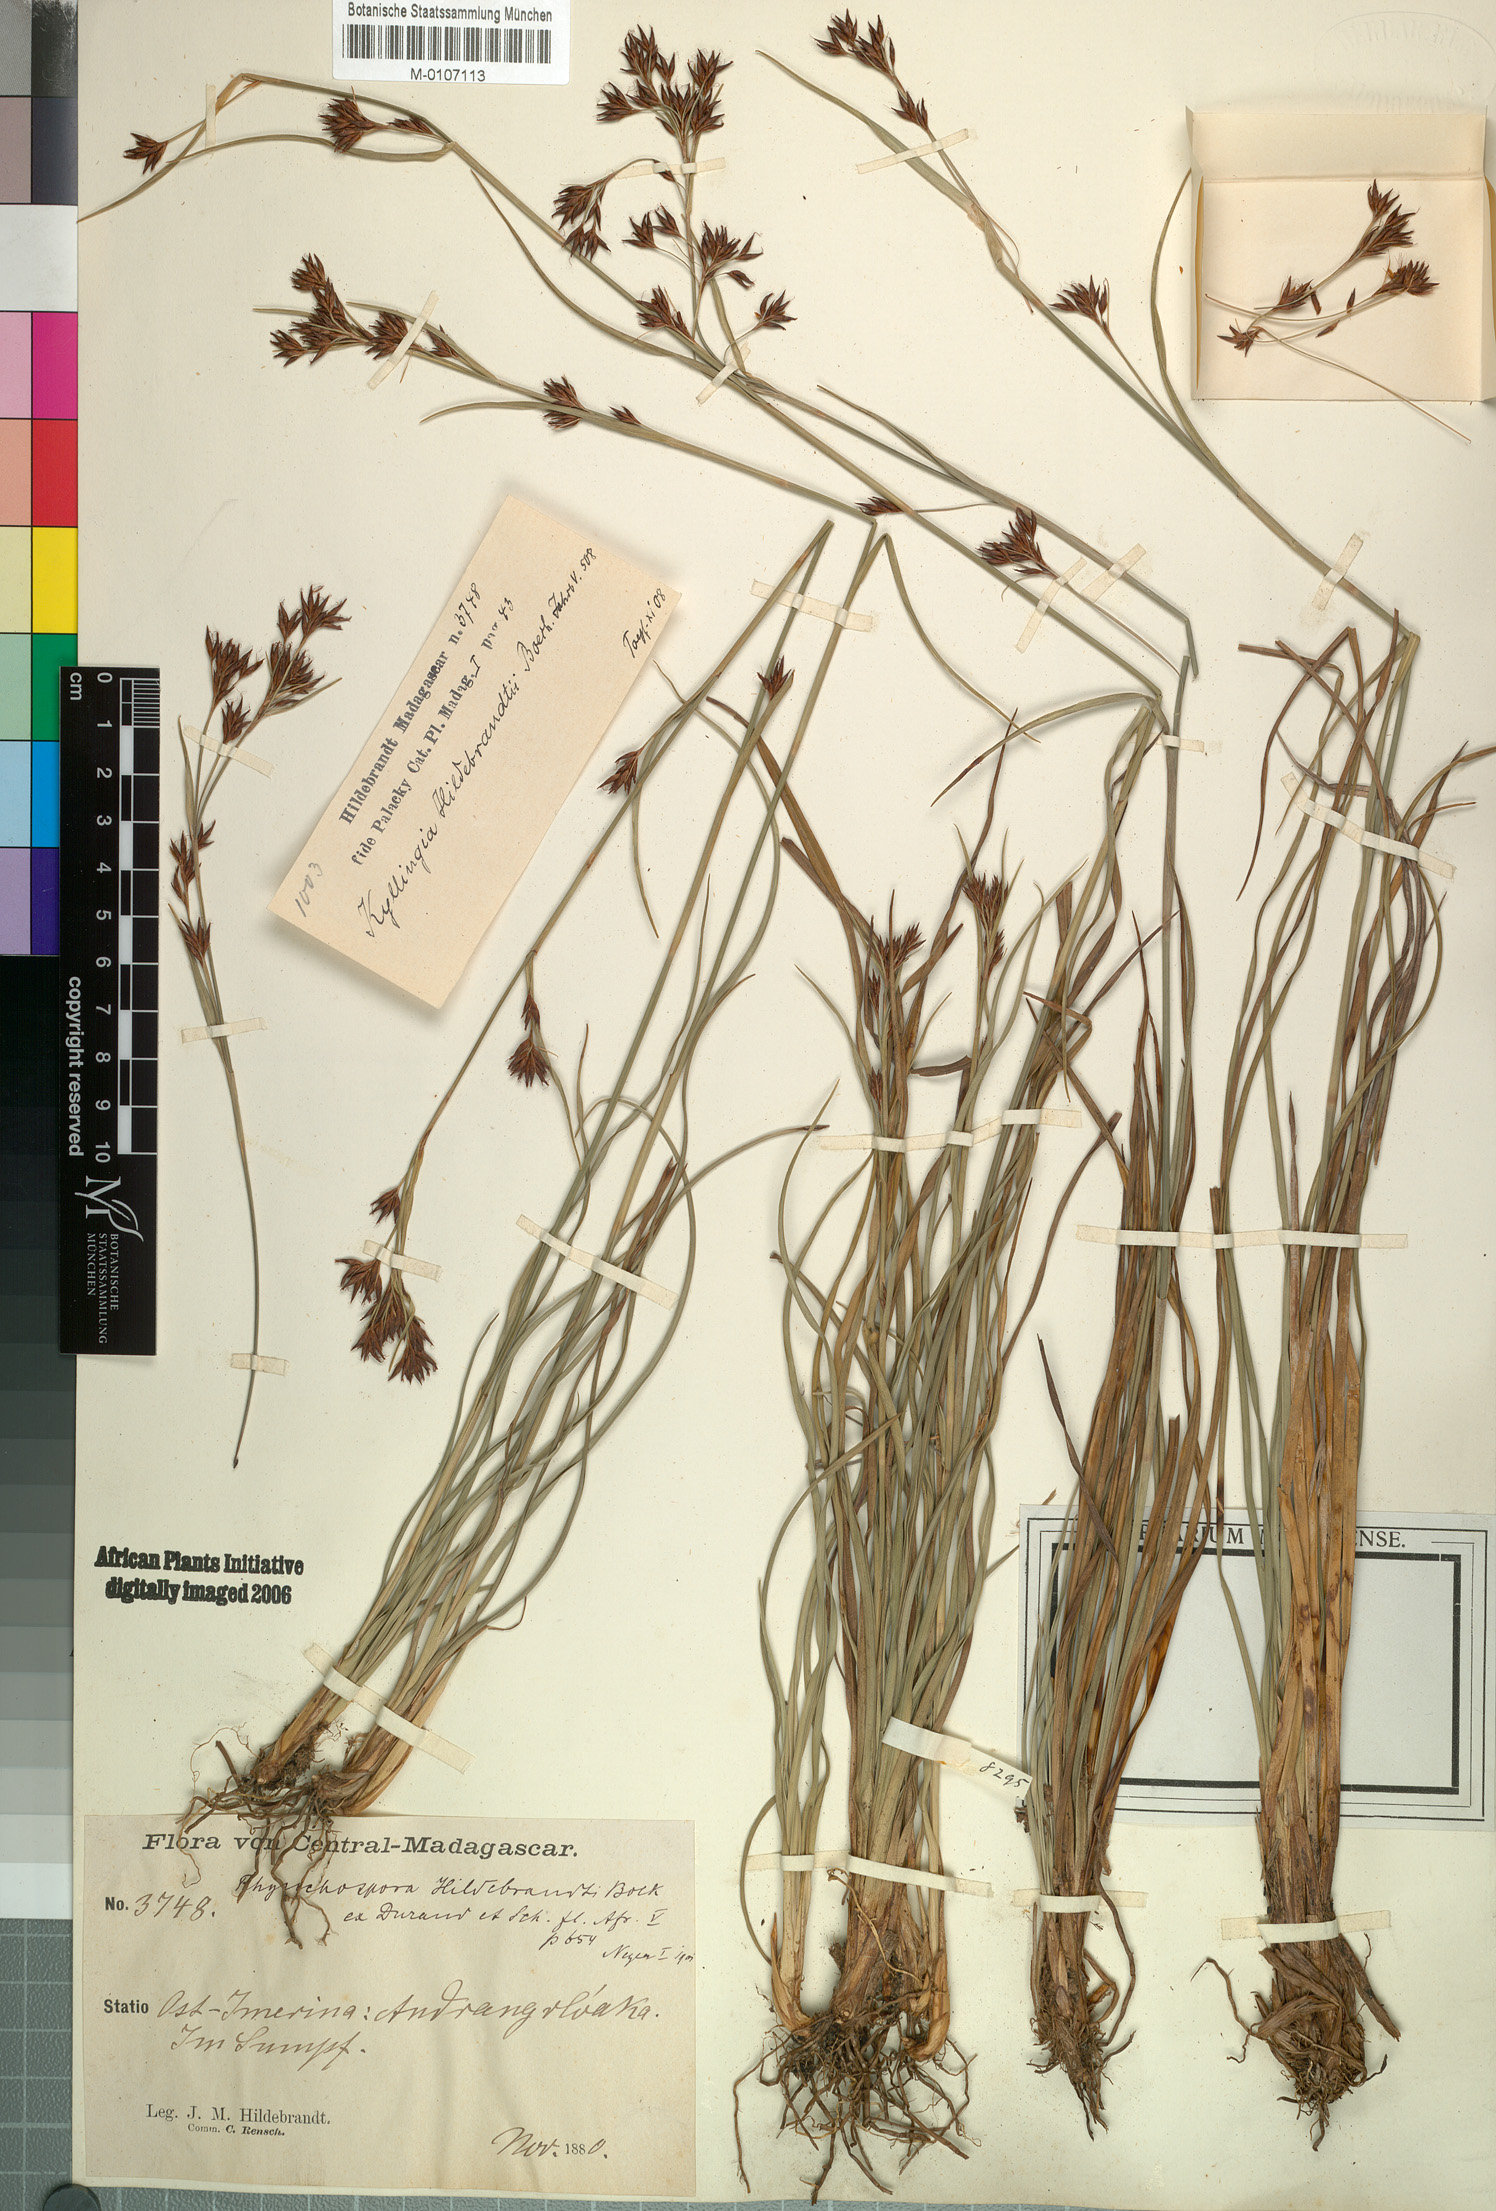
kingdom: Plantae
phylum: Tracheophyta
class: Liliopsida
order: Poales
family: Cyperaceae
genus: Rhynchospora
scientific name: Rhynchospora hildebrandtii
